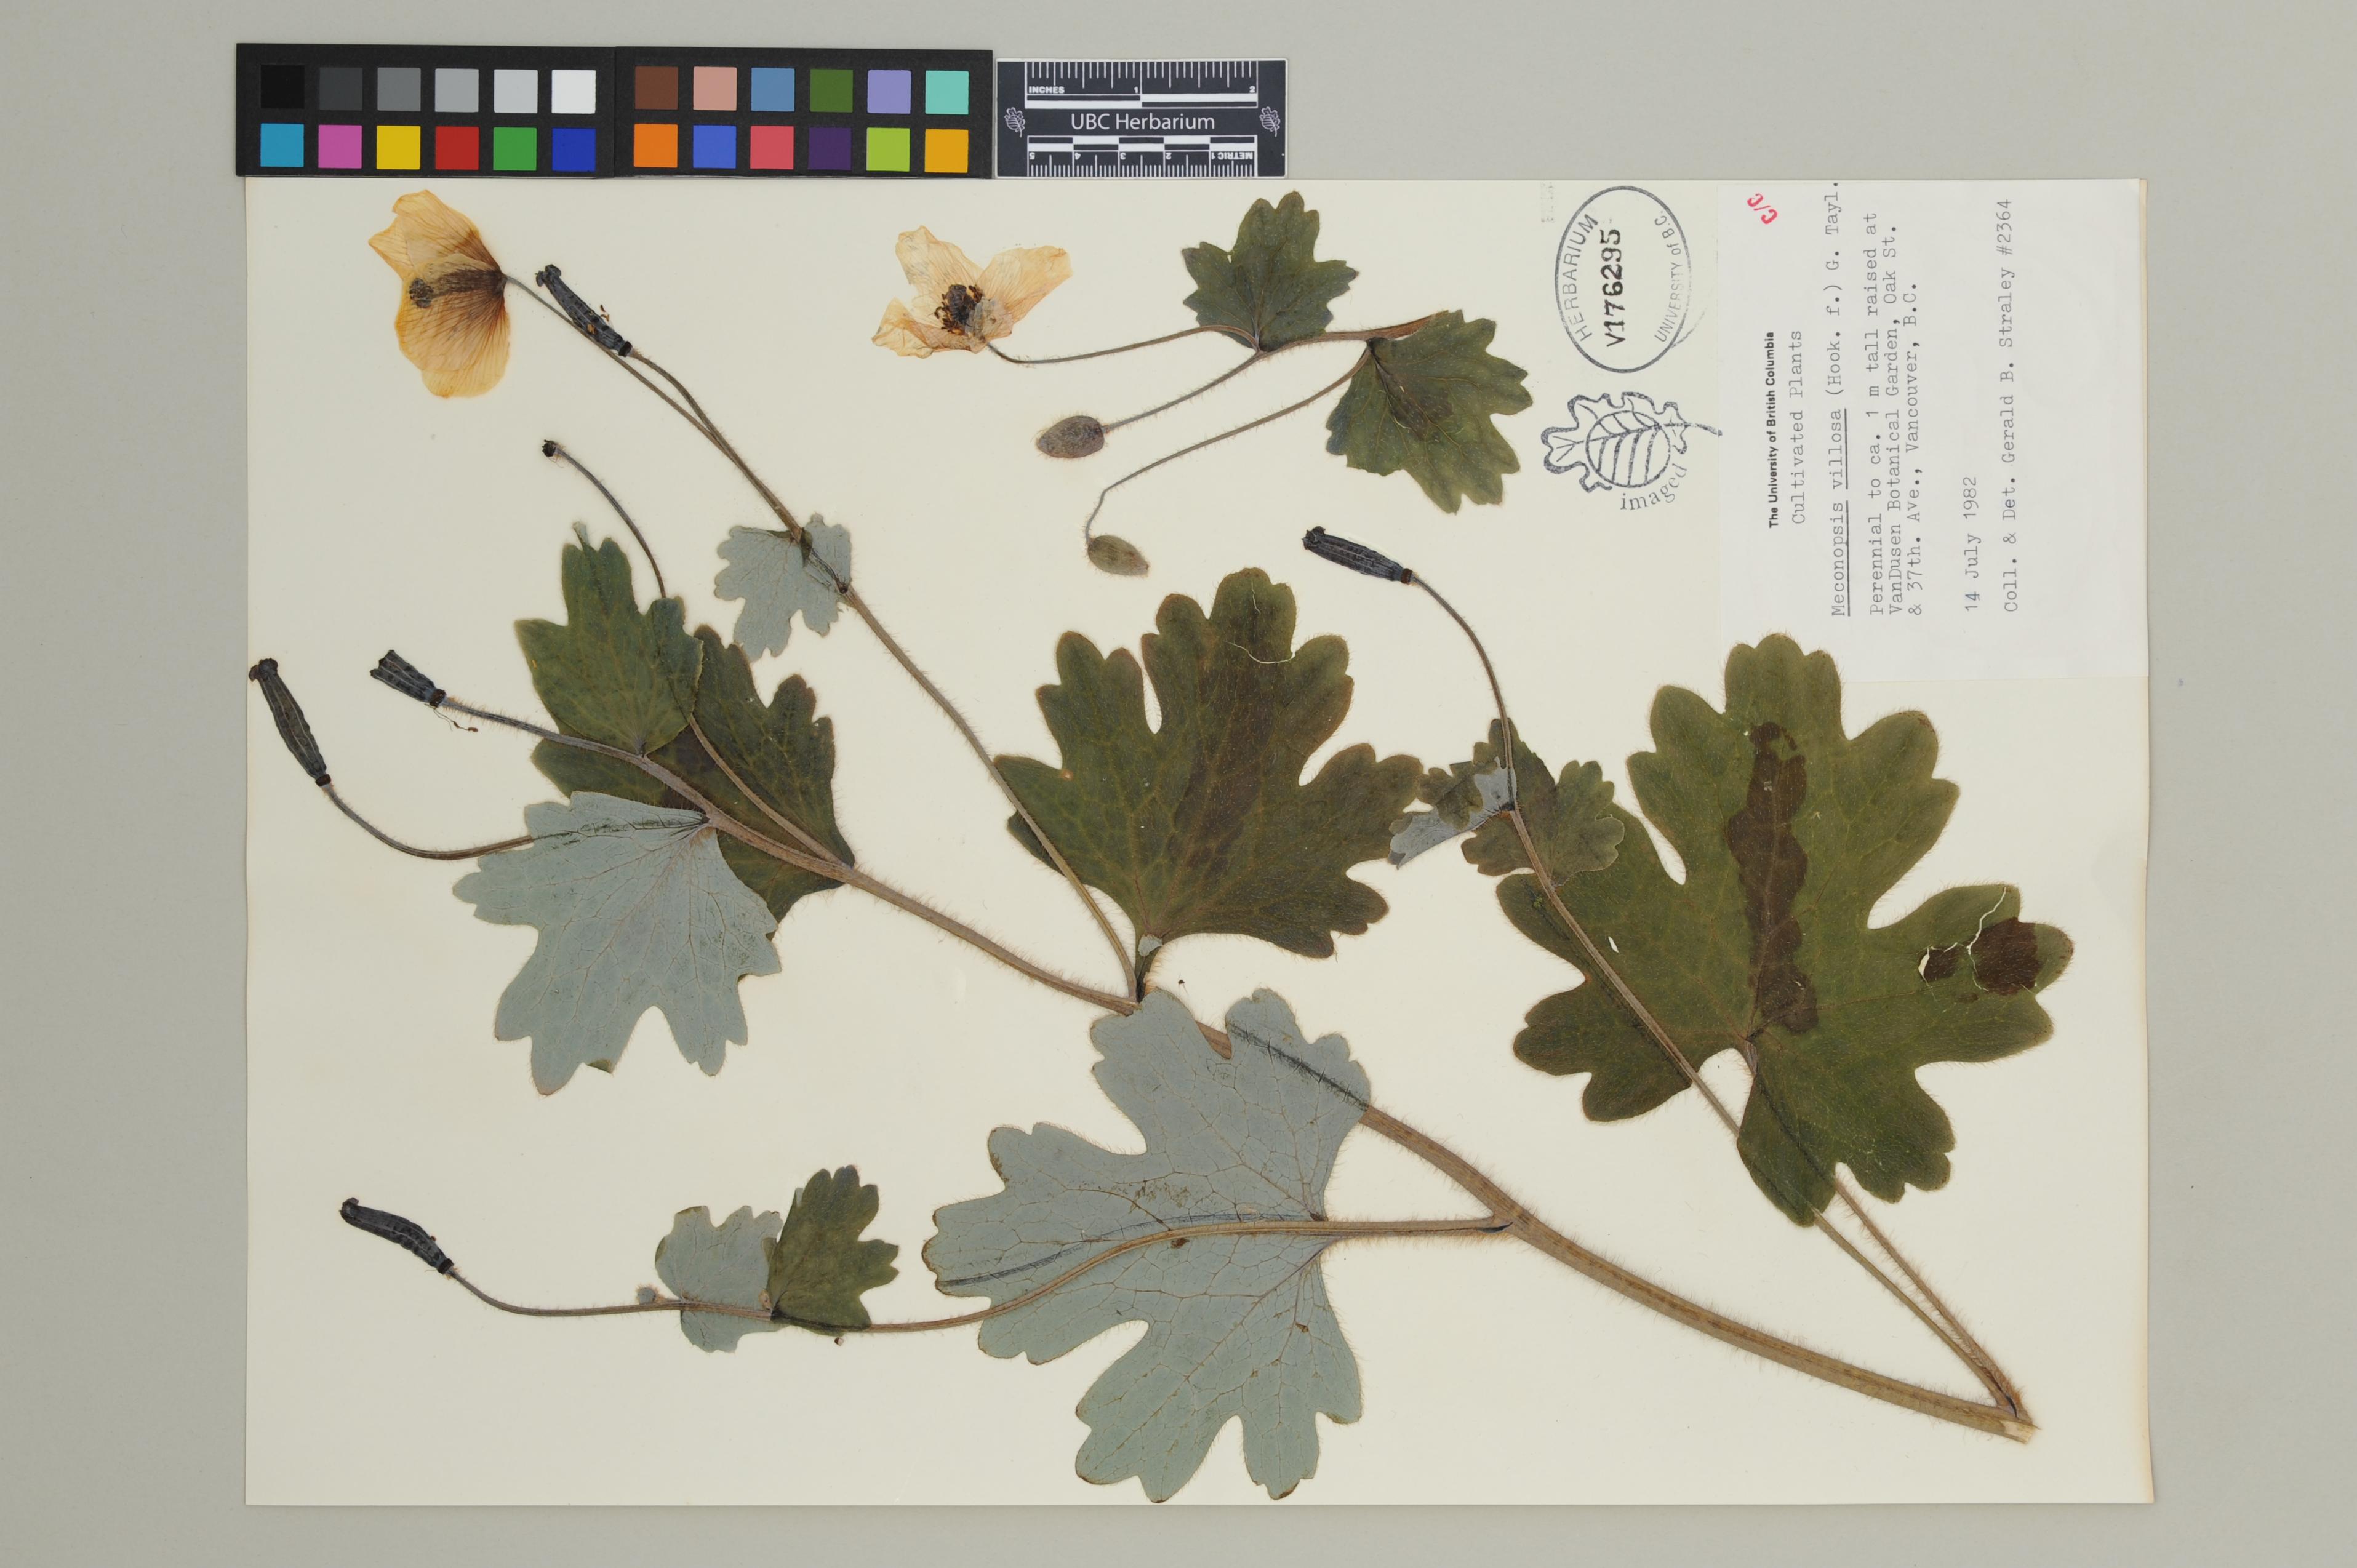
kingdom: Plantae
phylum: Tracheophyta
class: Magnoliopsida
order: Ranunculales
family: Papaveraceae
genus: Cathcartia
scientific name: Cathcartia villosa
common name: Himalayan woodland-poppy
